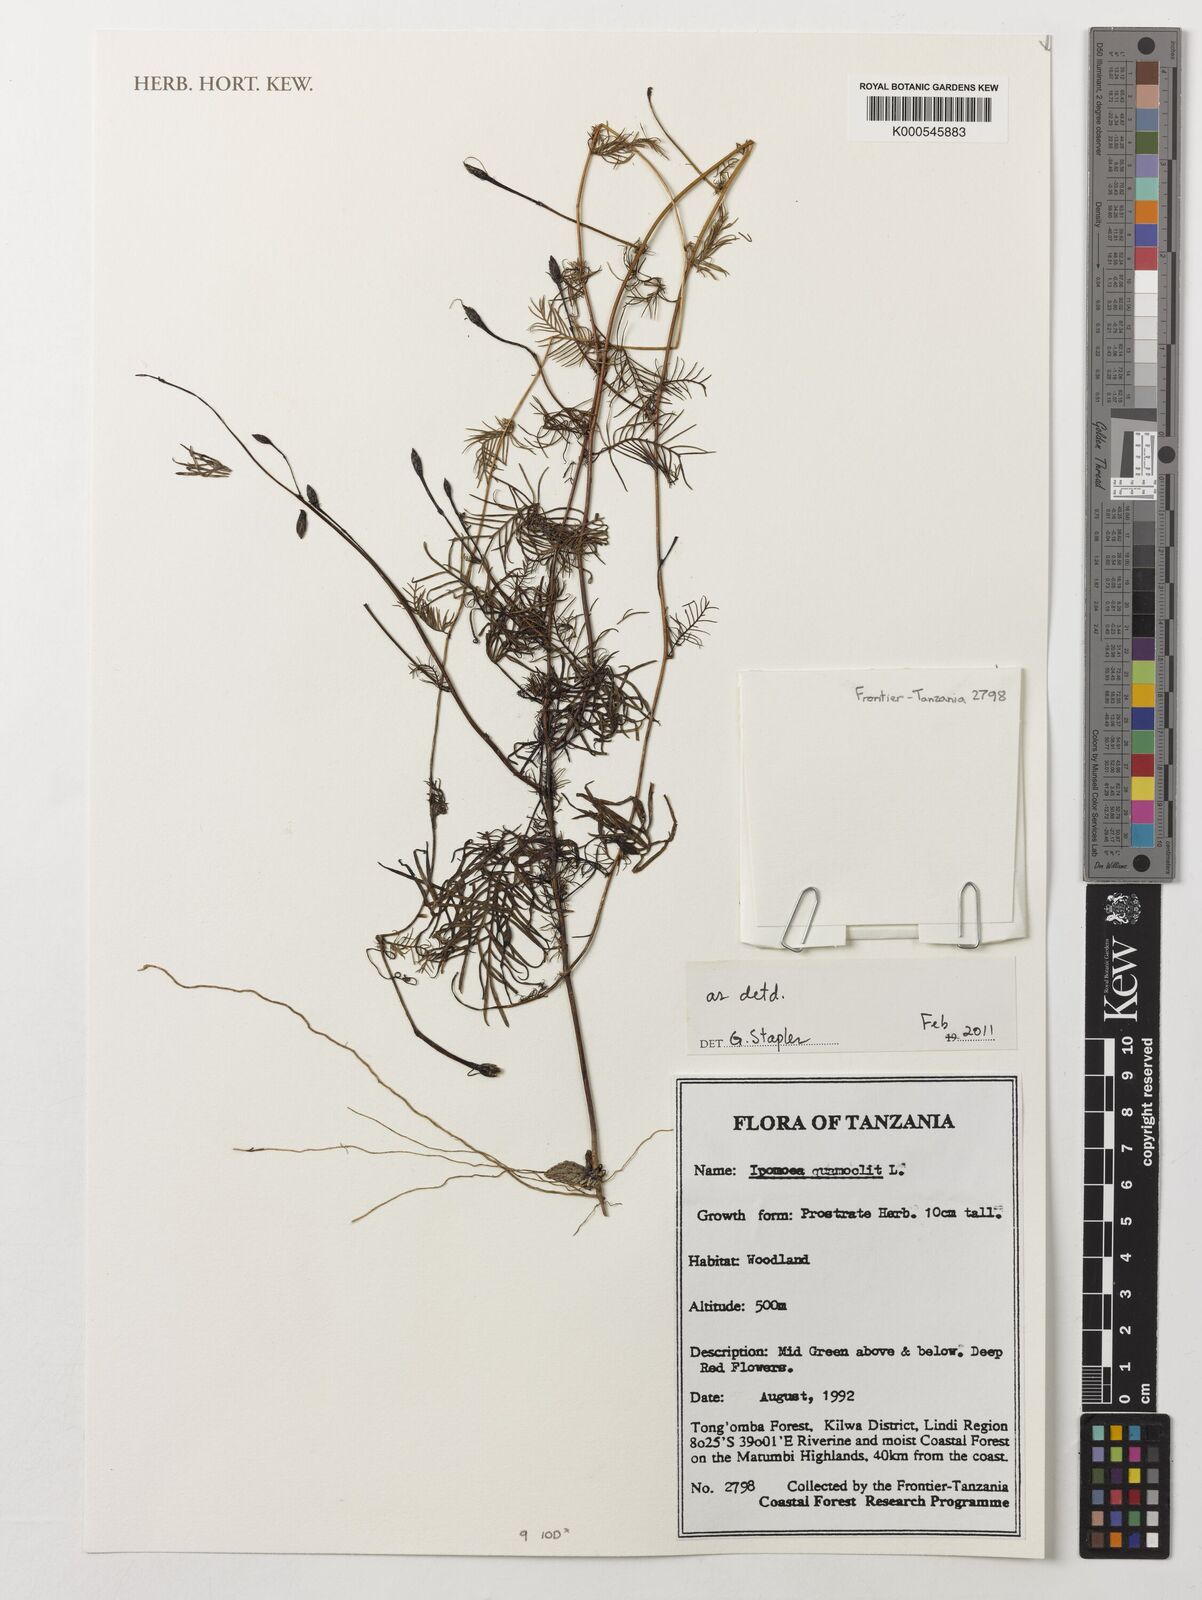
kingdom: Plantae
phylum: Tracheophyta
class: Magnoliopsida
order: Solanales
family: Convolvulaceae
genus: Ipomoea
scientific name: Ipomoea quamoclit
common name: Cypress vine
